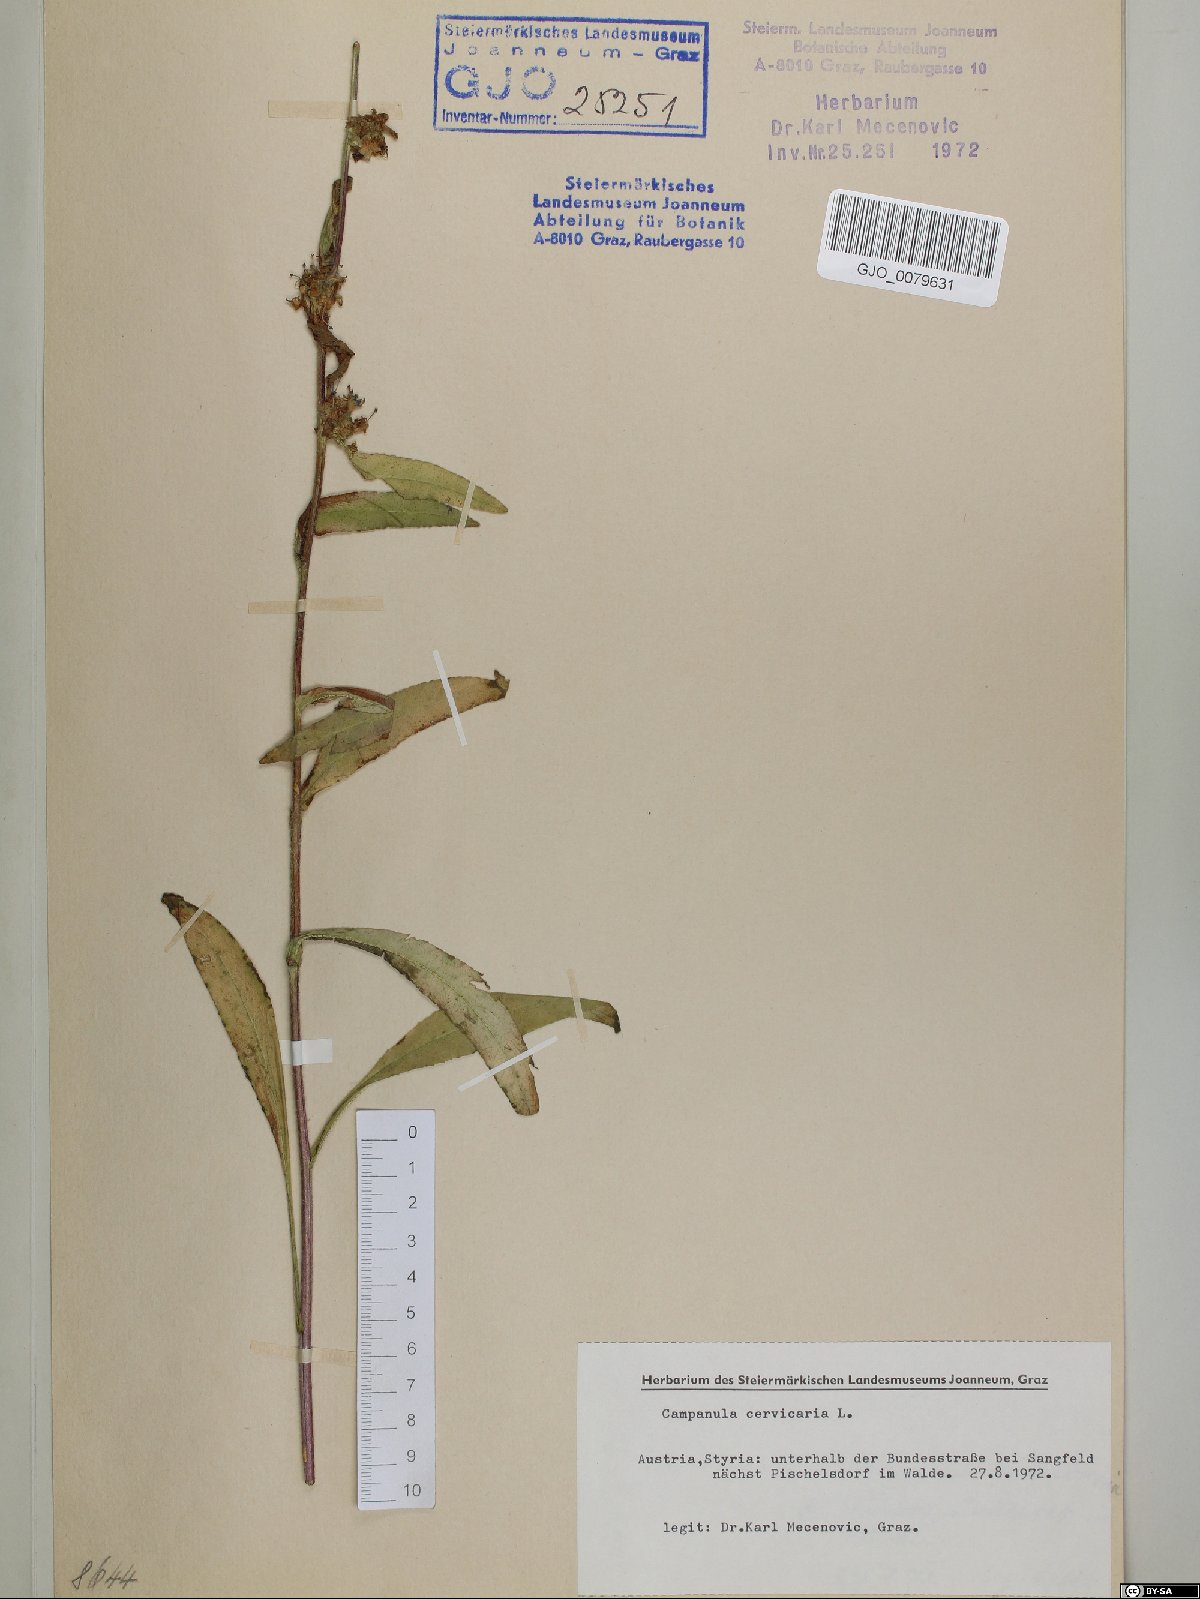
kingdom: Plantae
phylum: Tracheophyta
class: Magnoliopsida
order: Asterales
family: Campanulaceae
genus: Campanula
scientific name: Campanula cervicaria
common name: Bristly bellflower
